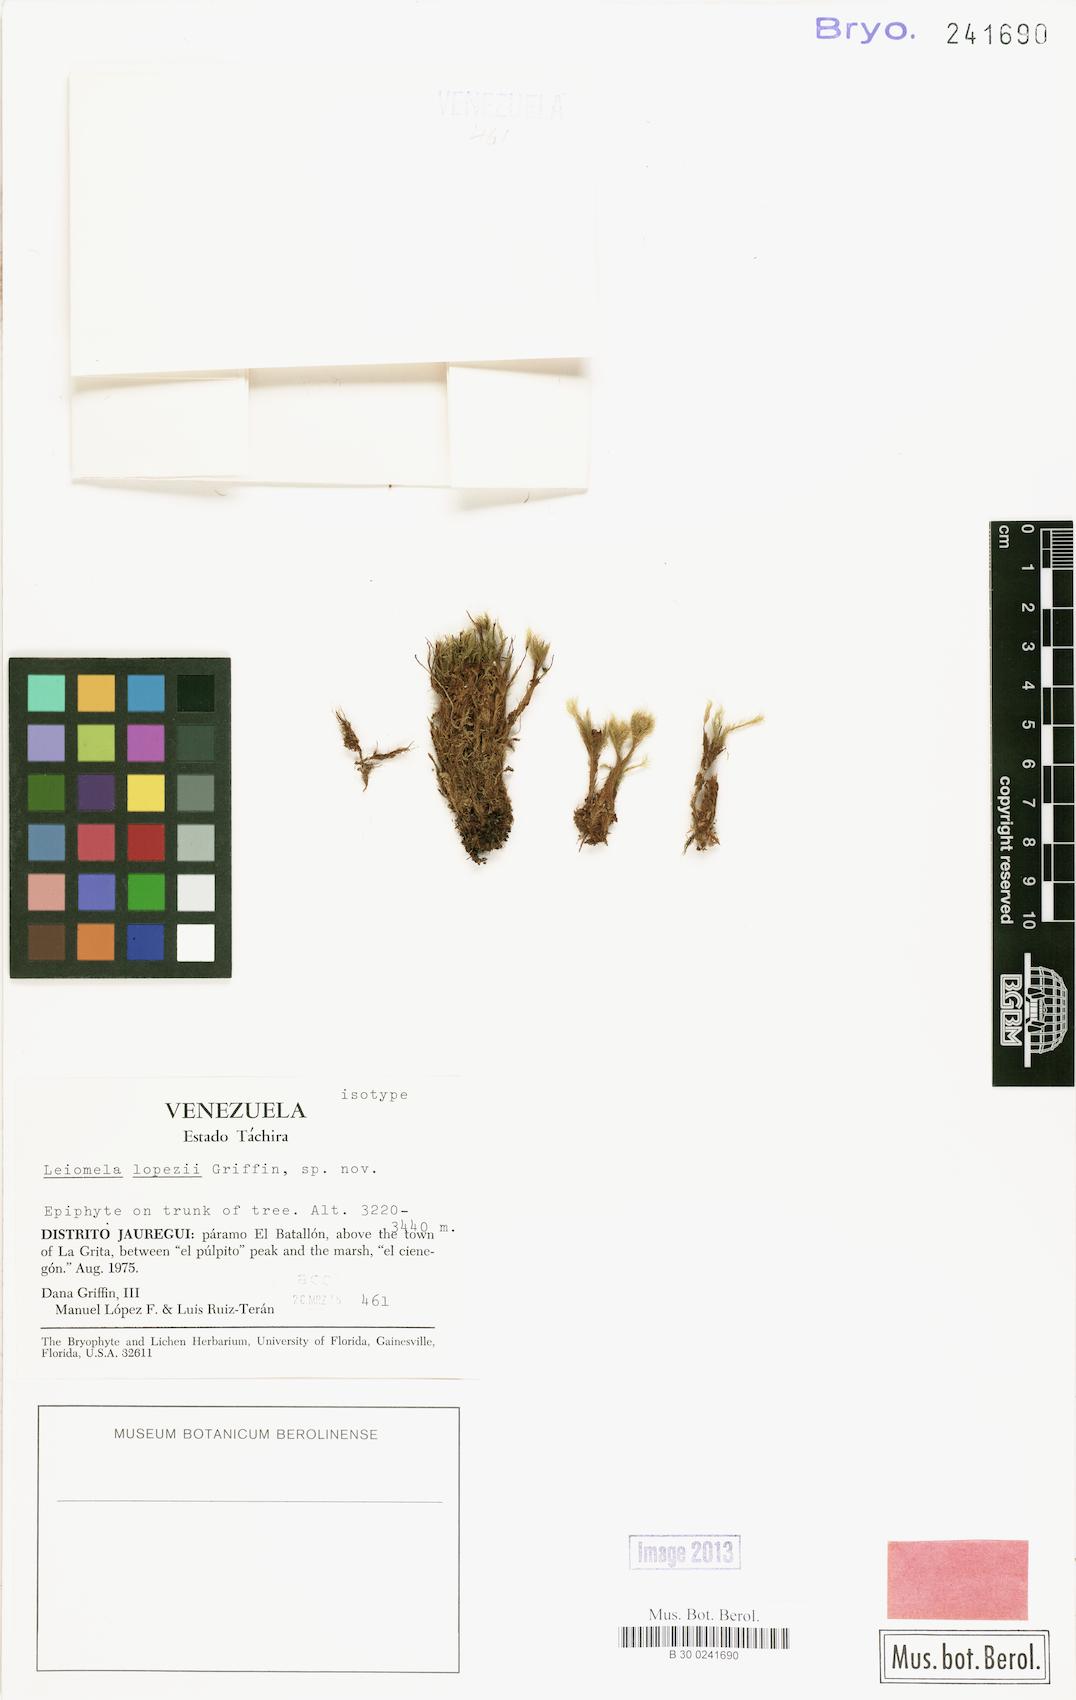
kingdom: Plantae
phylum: Bryophyta
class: Bryopsida
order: Bartramiales
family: Bartramiaceae
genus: Leiomela
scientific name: Leiomela lopezii
